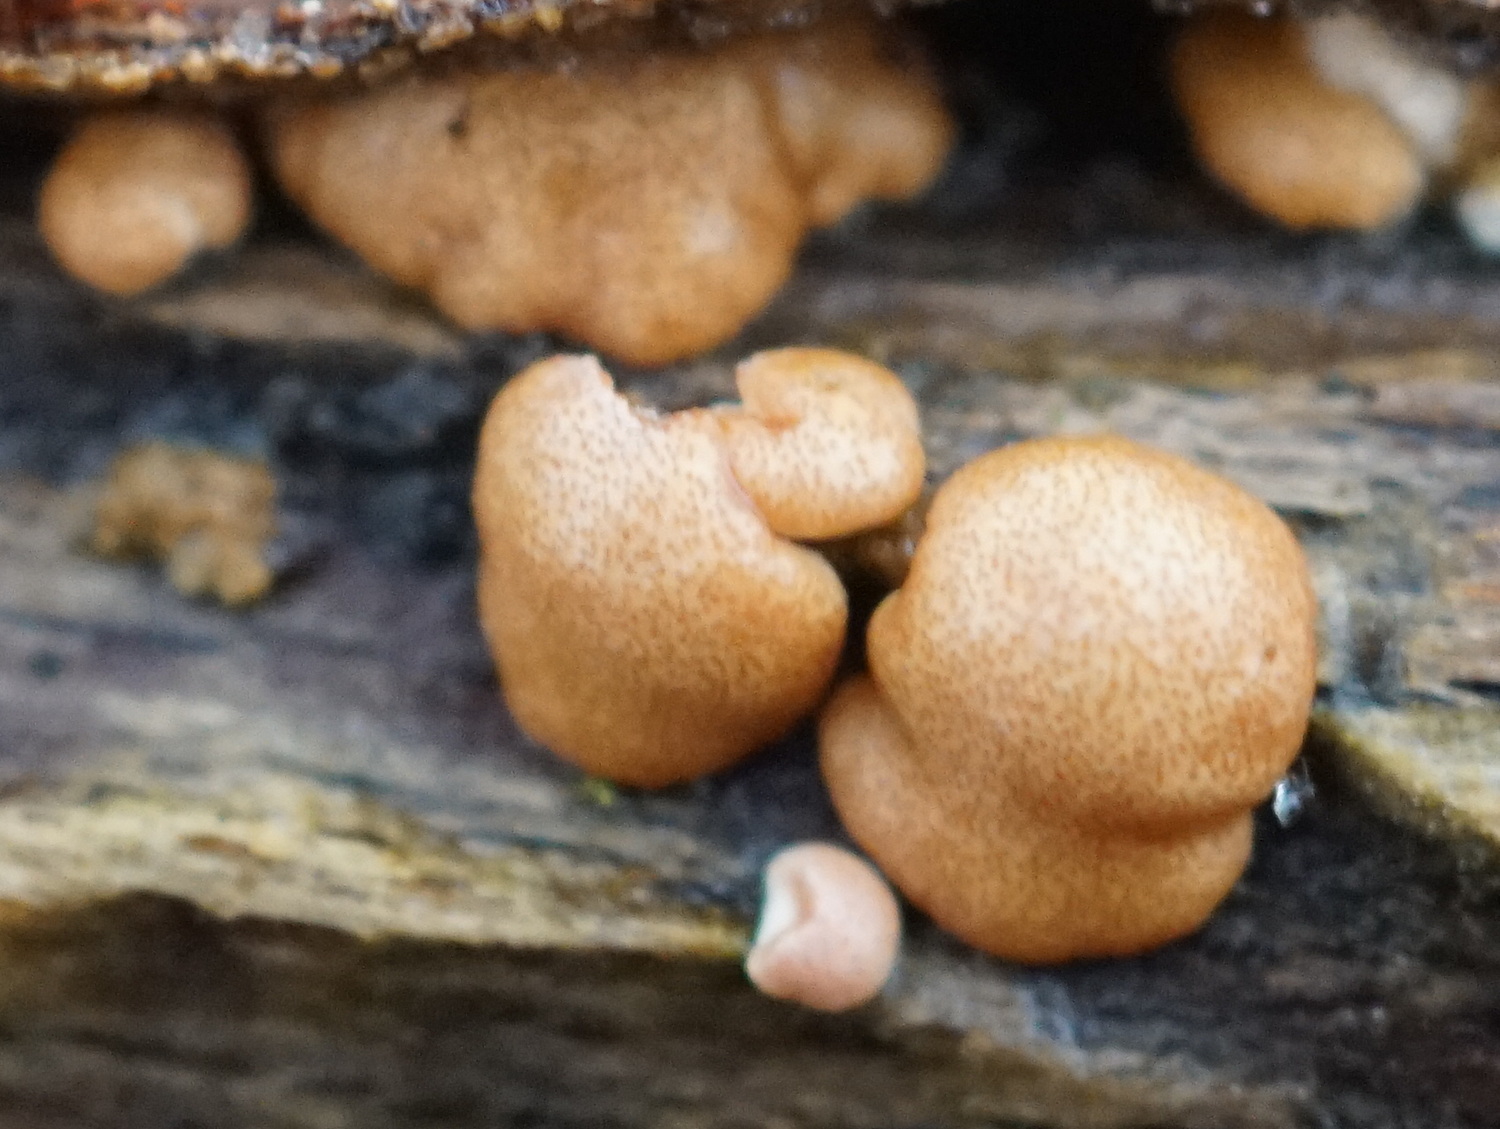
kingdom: Fungi
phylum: Ascomycota
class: Sordariomycetes
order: Hypocreales
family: Hypocreaceae
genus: Trichoderma
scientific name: Trichoderma europaeum
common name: rosabrun kødkerne
